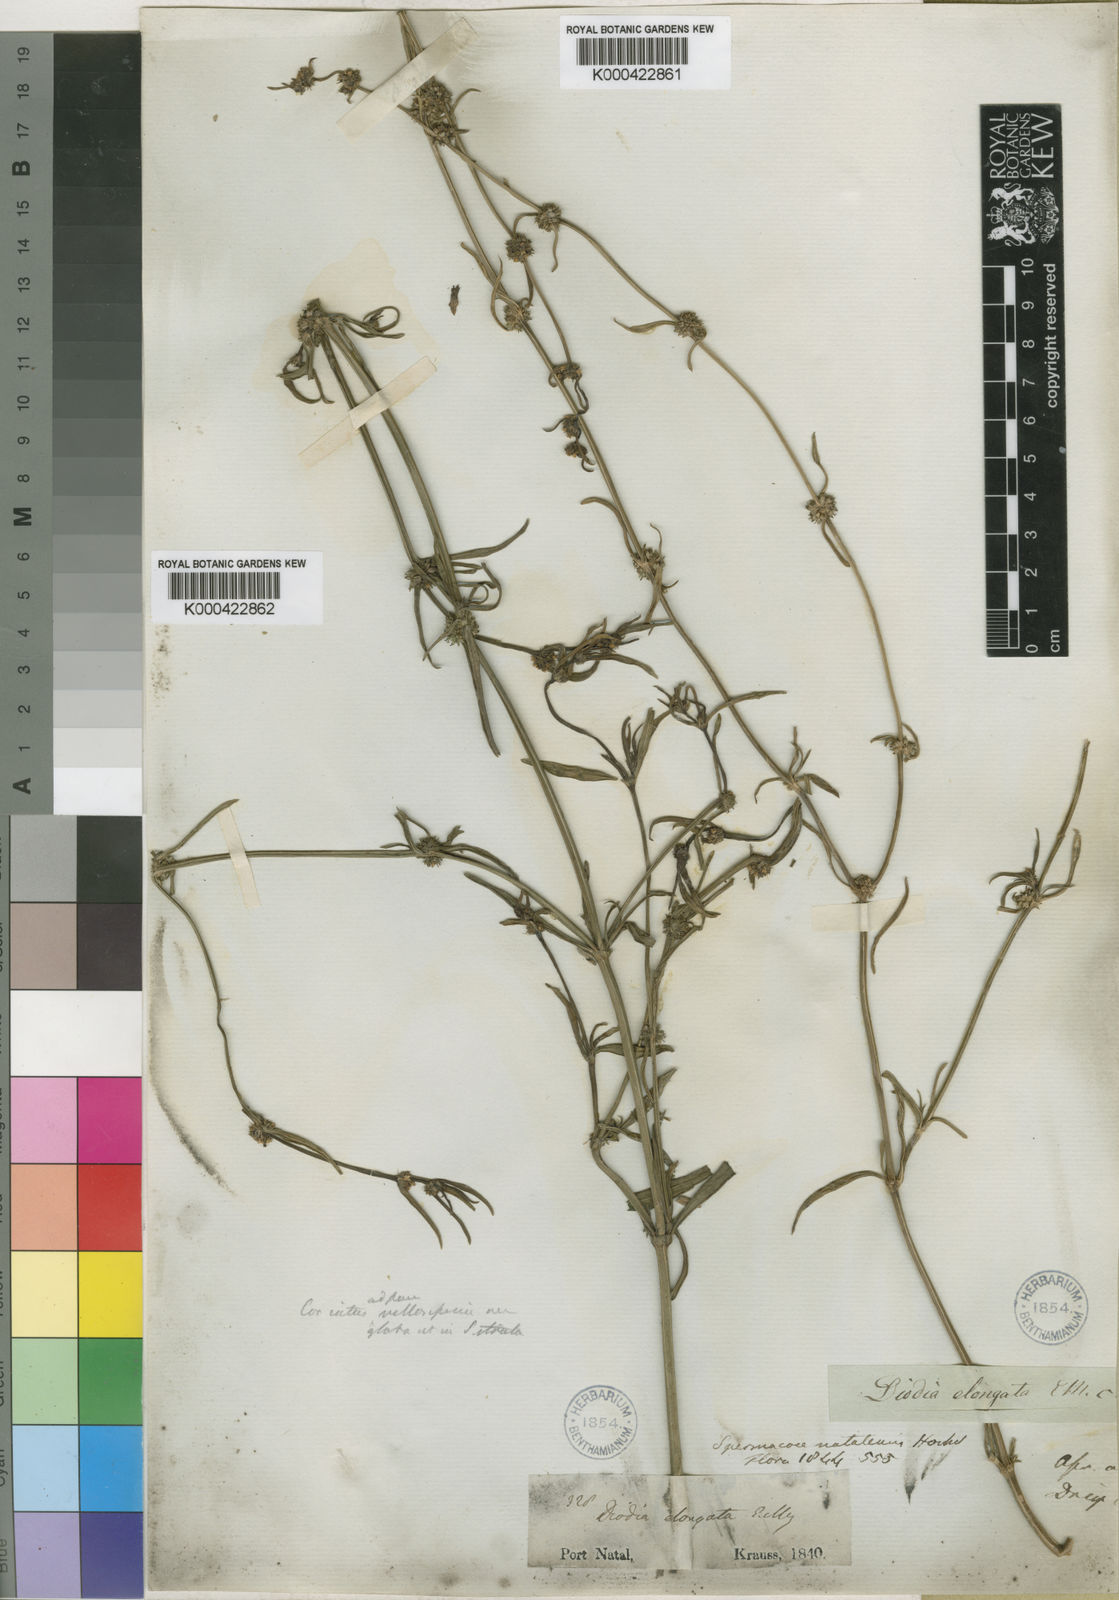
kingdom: Plantae
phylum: Tracheophyta
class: Magnoliopsida
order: Gentianales
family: Rubiaceae
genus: Spermacoce
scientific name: Spermacoce natalensis
